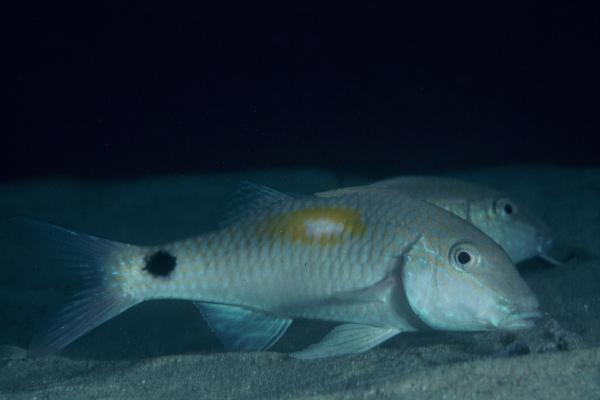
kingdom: Animalia
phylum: Chordata
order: Perciformes
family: Mullidae
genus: Parupeneus
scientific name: Parupeneus indicus
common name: Indian goatfish
